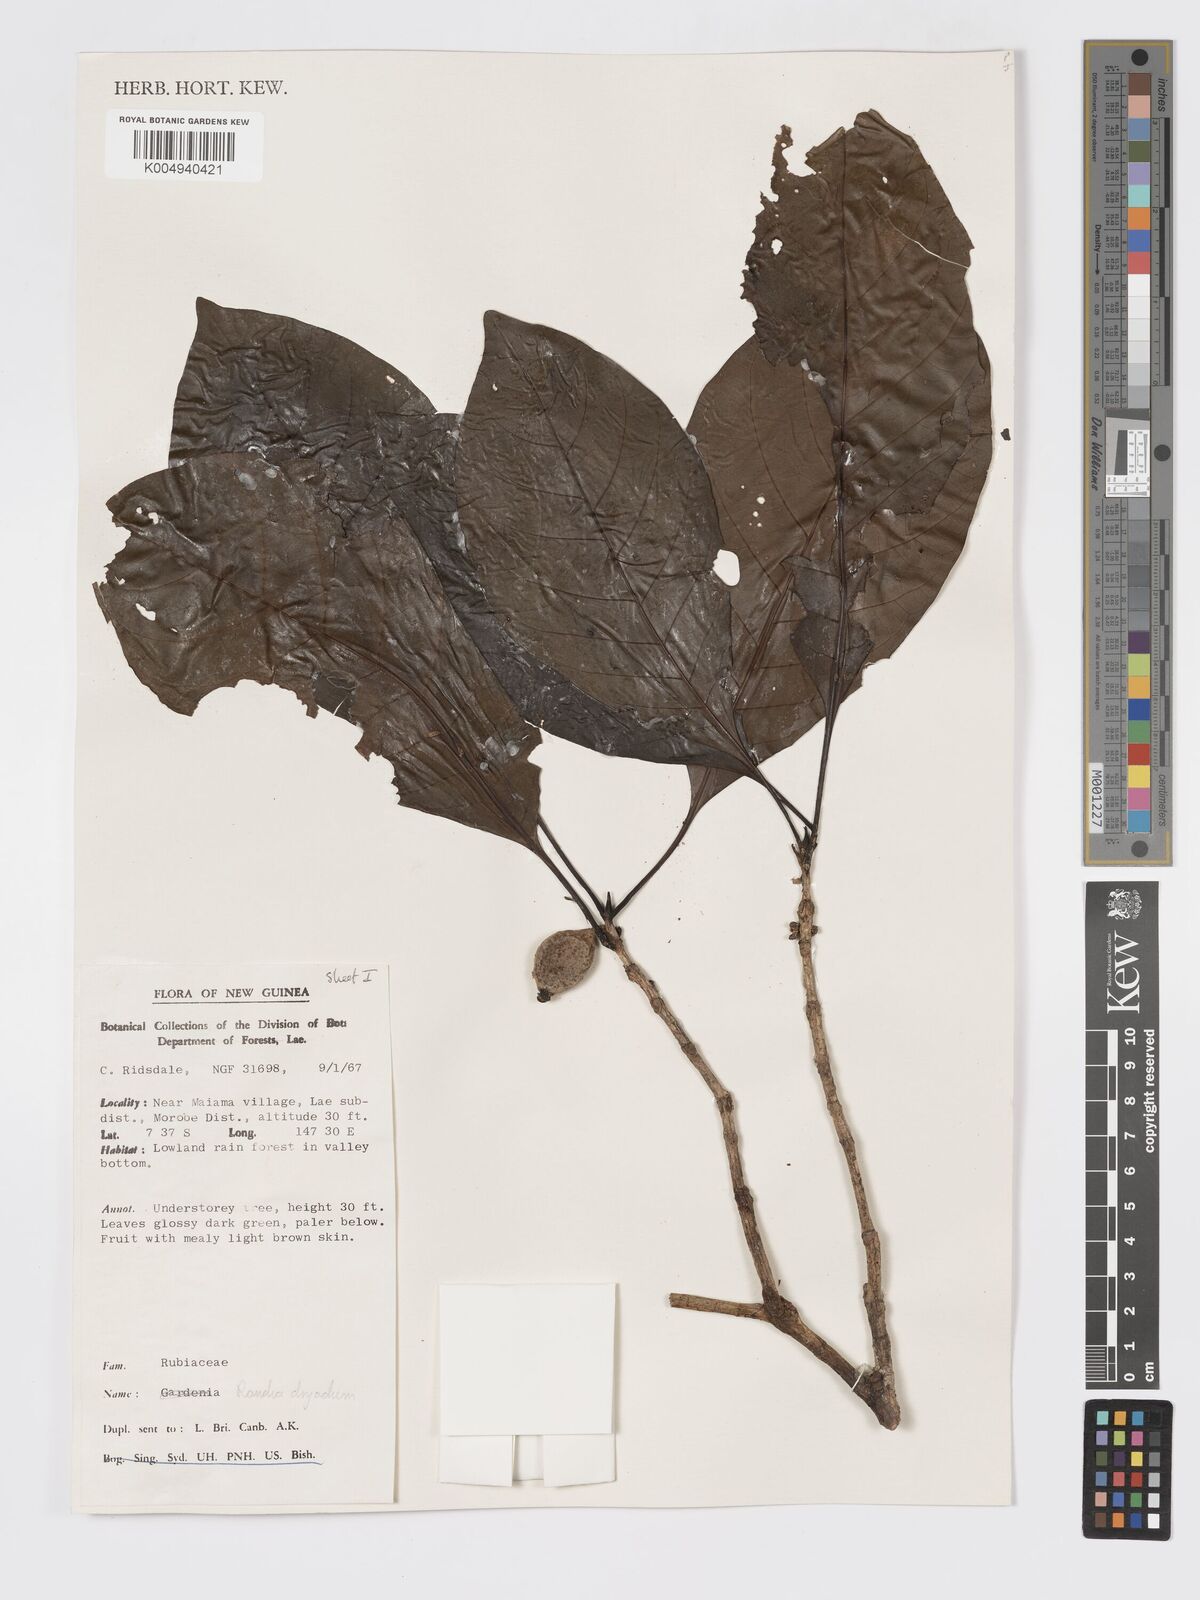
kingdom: Plantae
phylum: Tracheophyta
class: Magnoliopsida
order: Gentianales
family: Rubiaceae
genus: Atractocarpus
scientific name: Atractocarpus macarthurii
